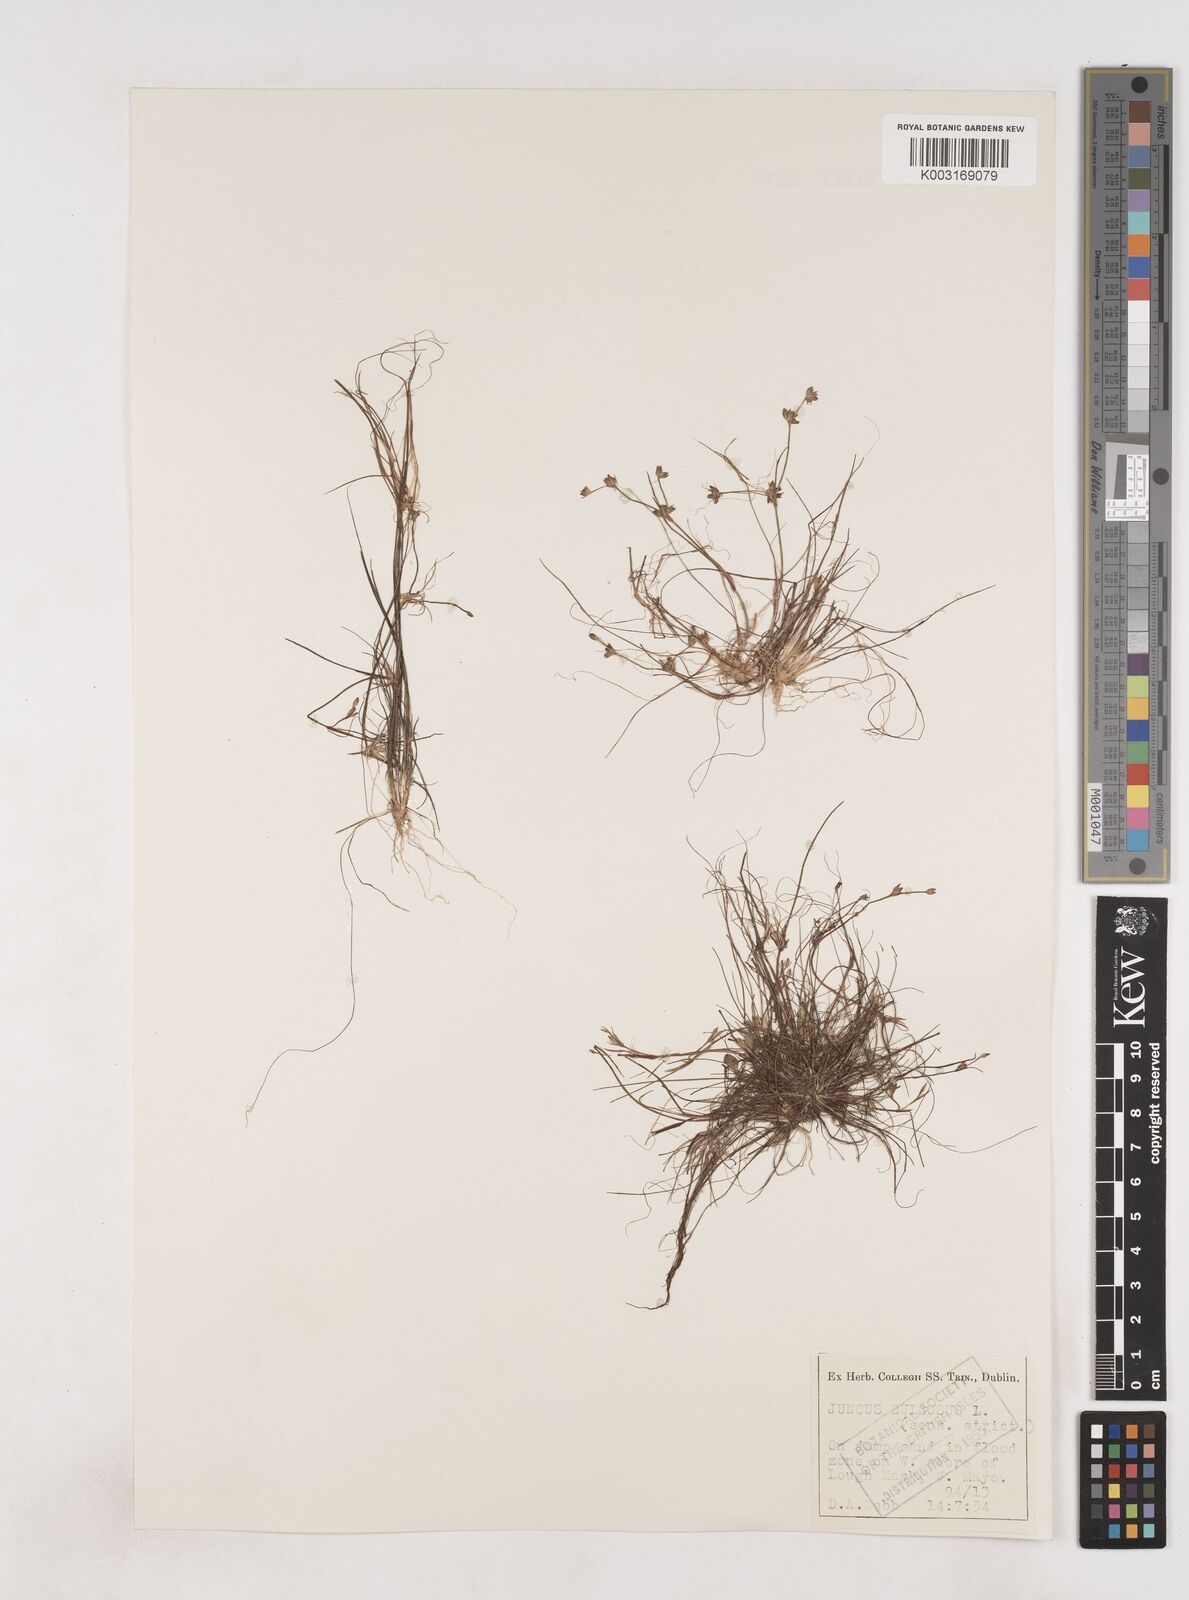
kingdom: Plantae
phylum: Tracheophyta
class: Liliopsida
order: Poales
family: Juncaceae
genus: Juncus
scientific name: Juncus bulbosus
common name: Bulbous rush
